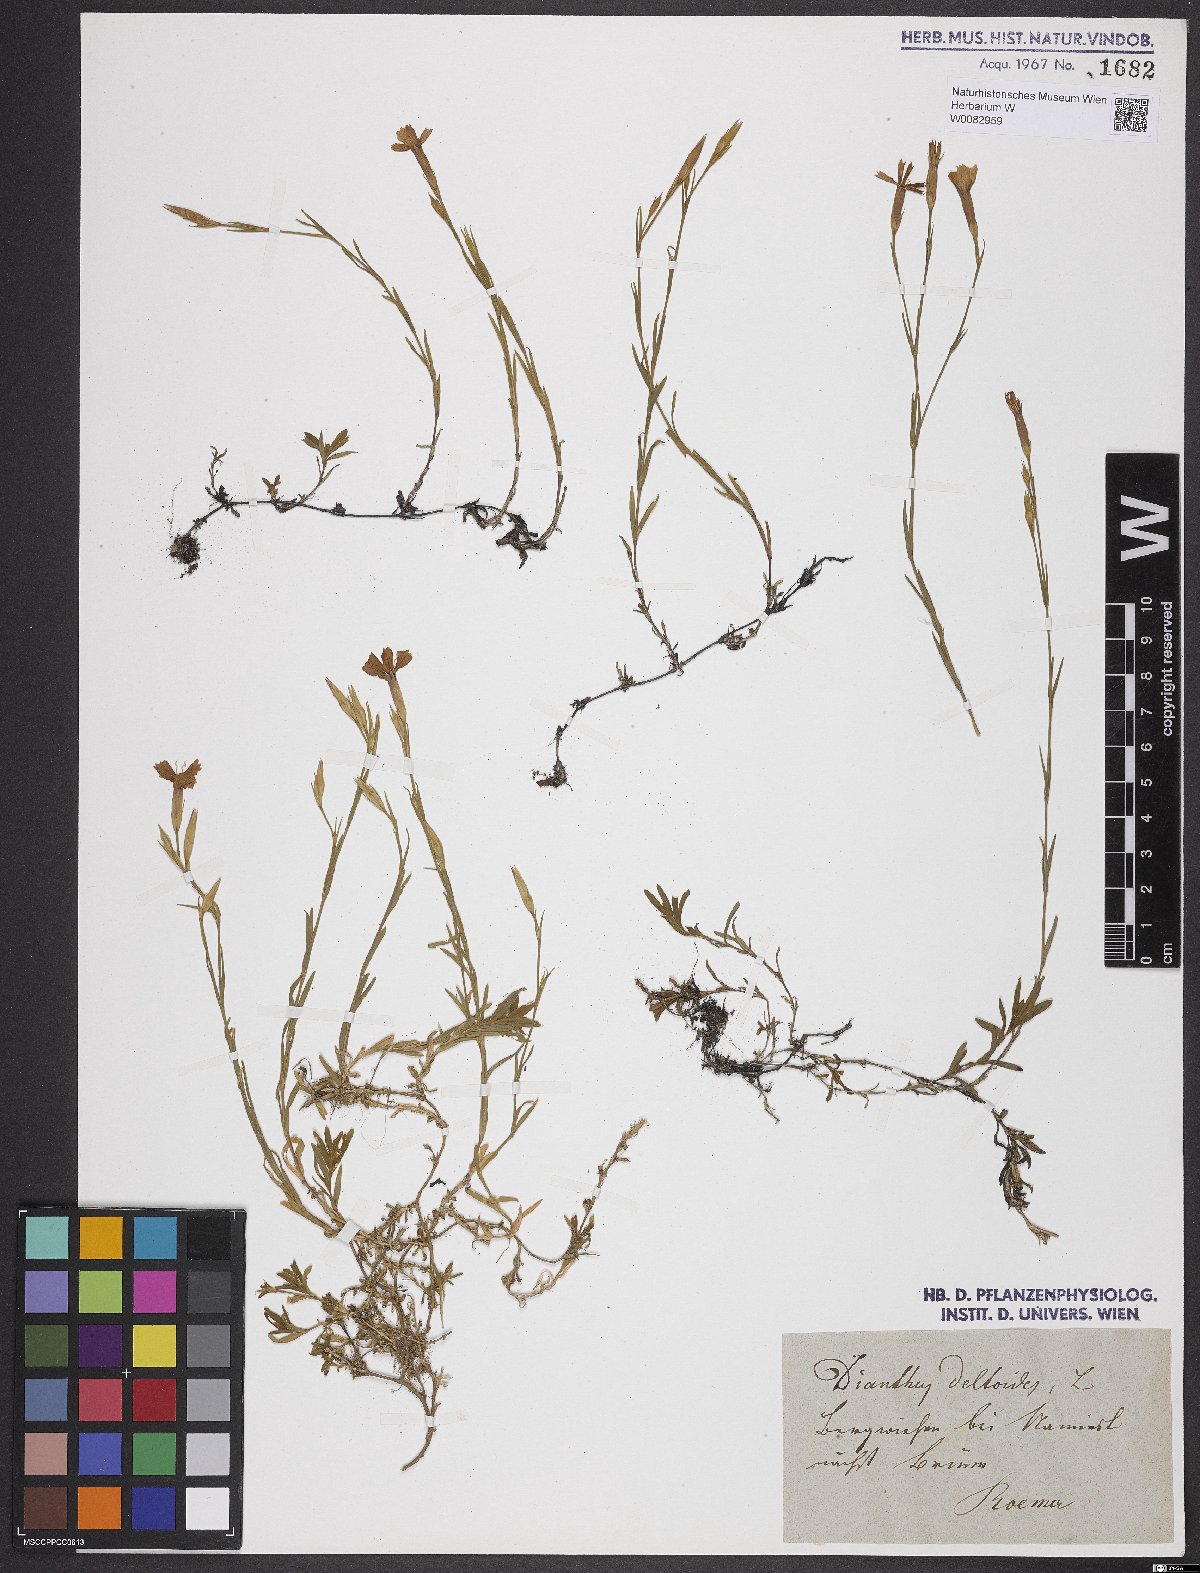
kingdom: Plantae
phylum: Tracheophyta
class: Magnoliopsida
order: Caryophyllales
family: Caryophyllaceae
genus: Dianthus
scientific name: Dianthus deltoides
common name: Maiden pink
